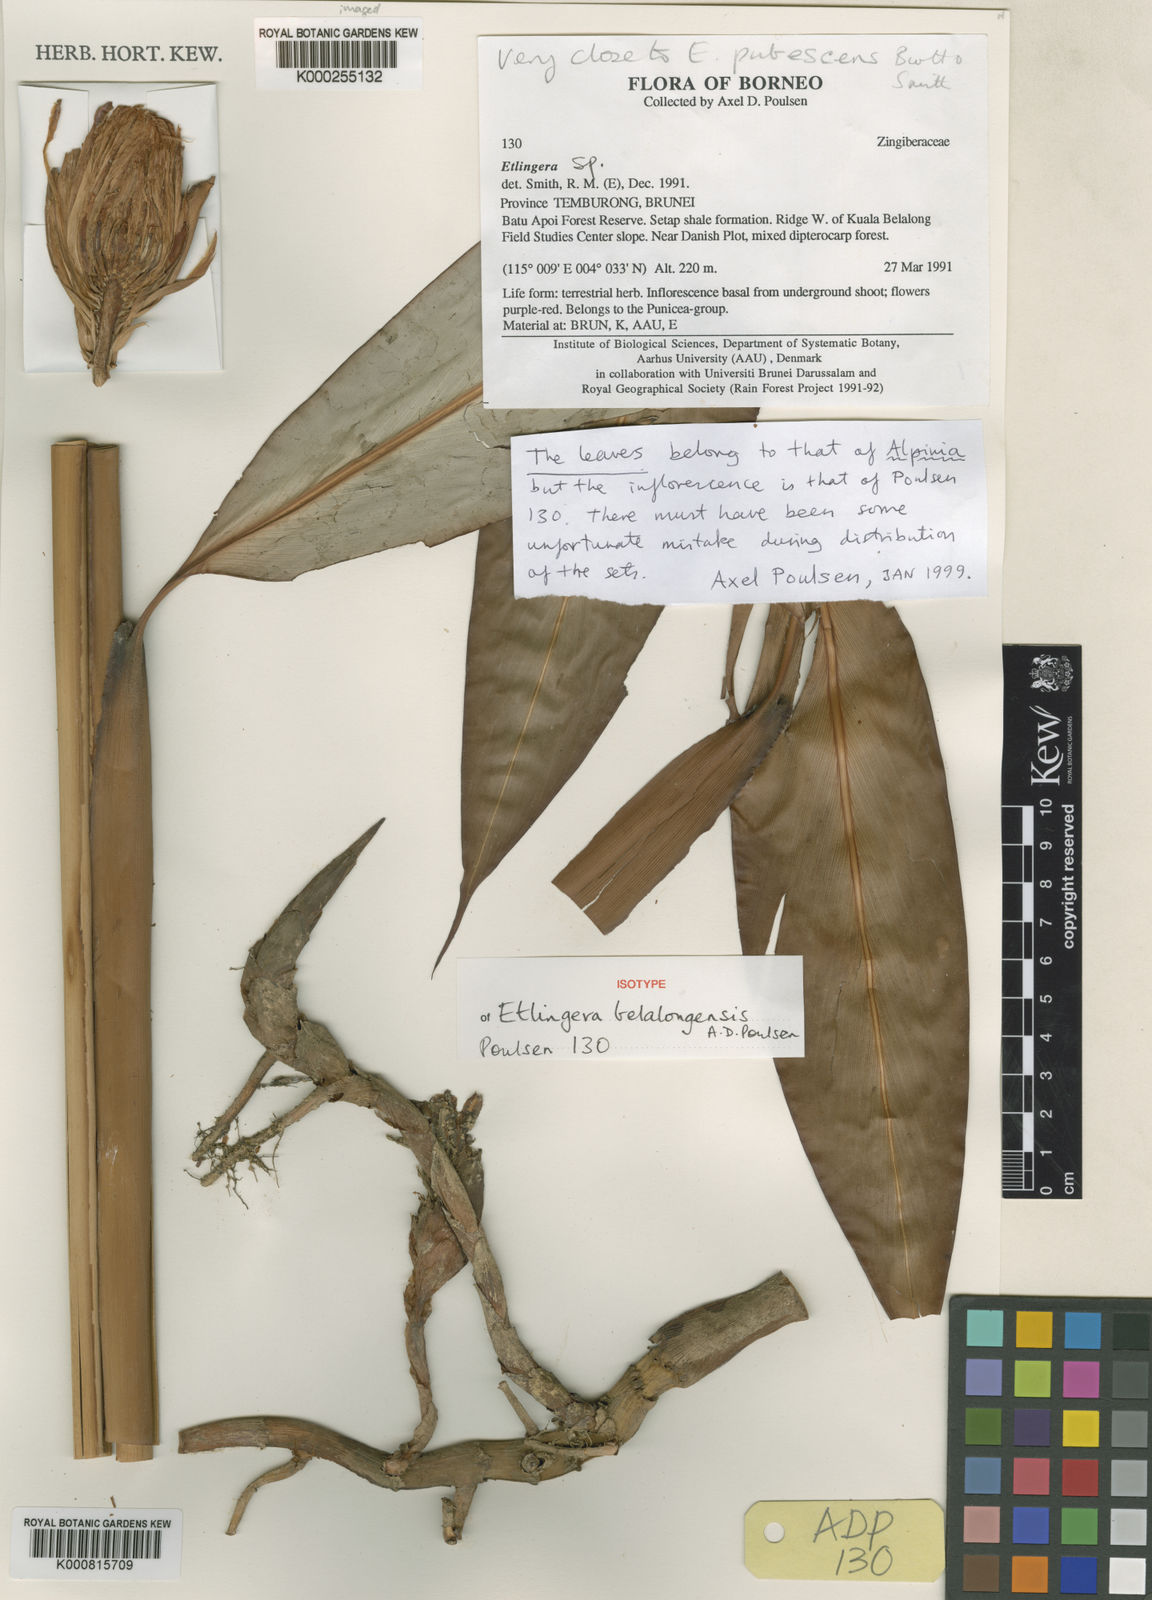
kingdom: Plantae
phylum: Tracheophyta
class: Liliopsida
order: Zingiberales
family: Zingiberaceae
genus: Etlingera
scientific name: Etlingera belalongensis
